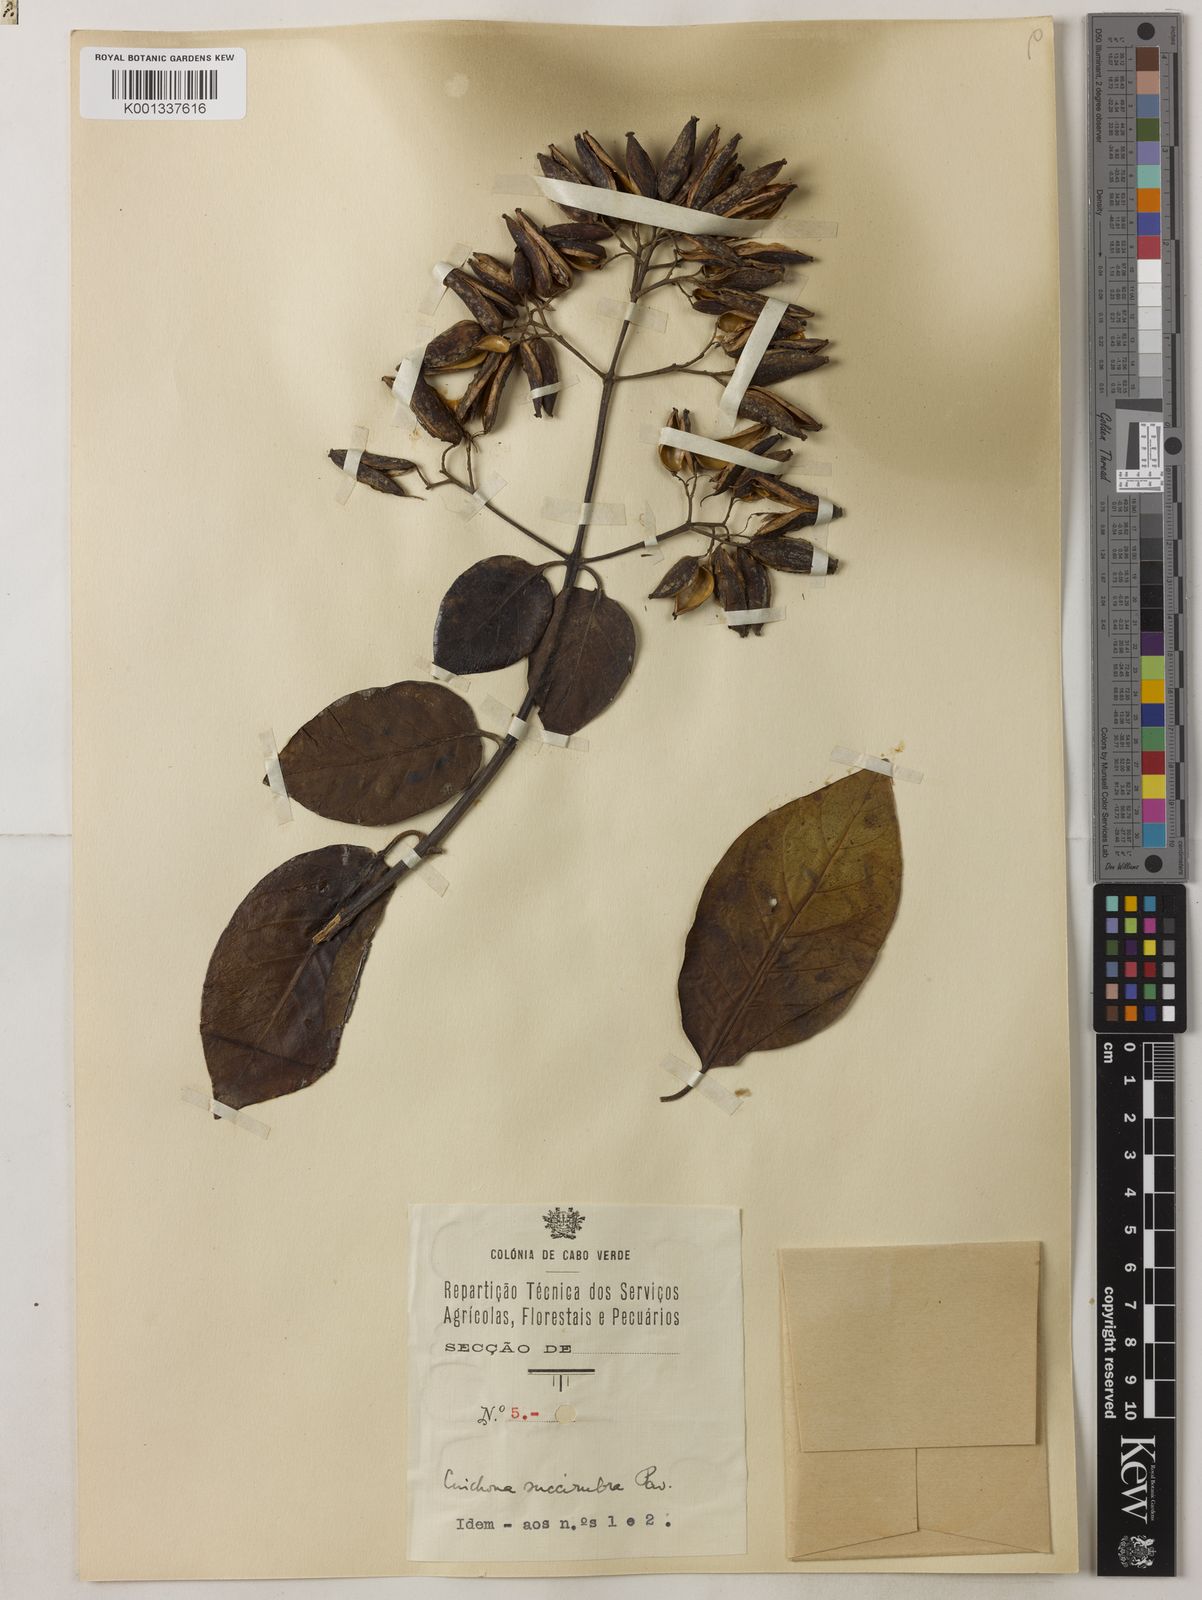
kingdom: Plantae
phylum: Tracheophyta
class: Magnoliopsida
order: Gentianales
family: Rubiaceae
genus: Cinchona
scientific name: Cinchona pubescens
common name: Quinine
